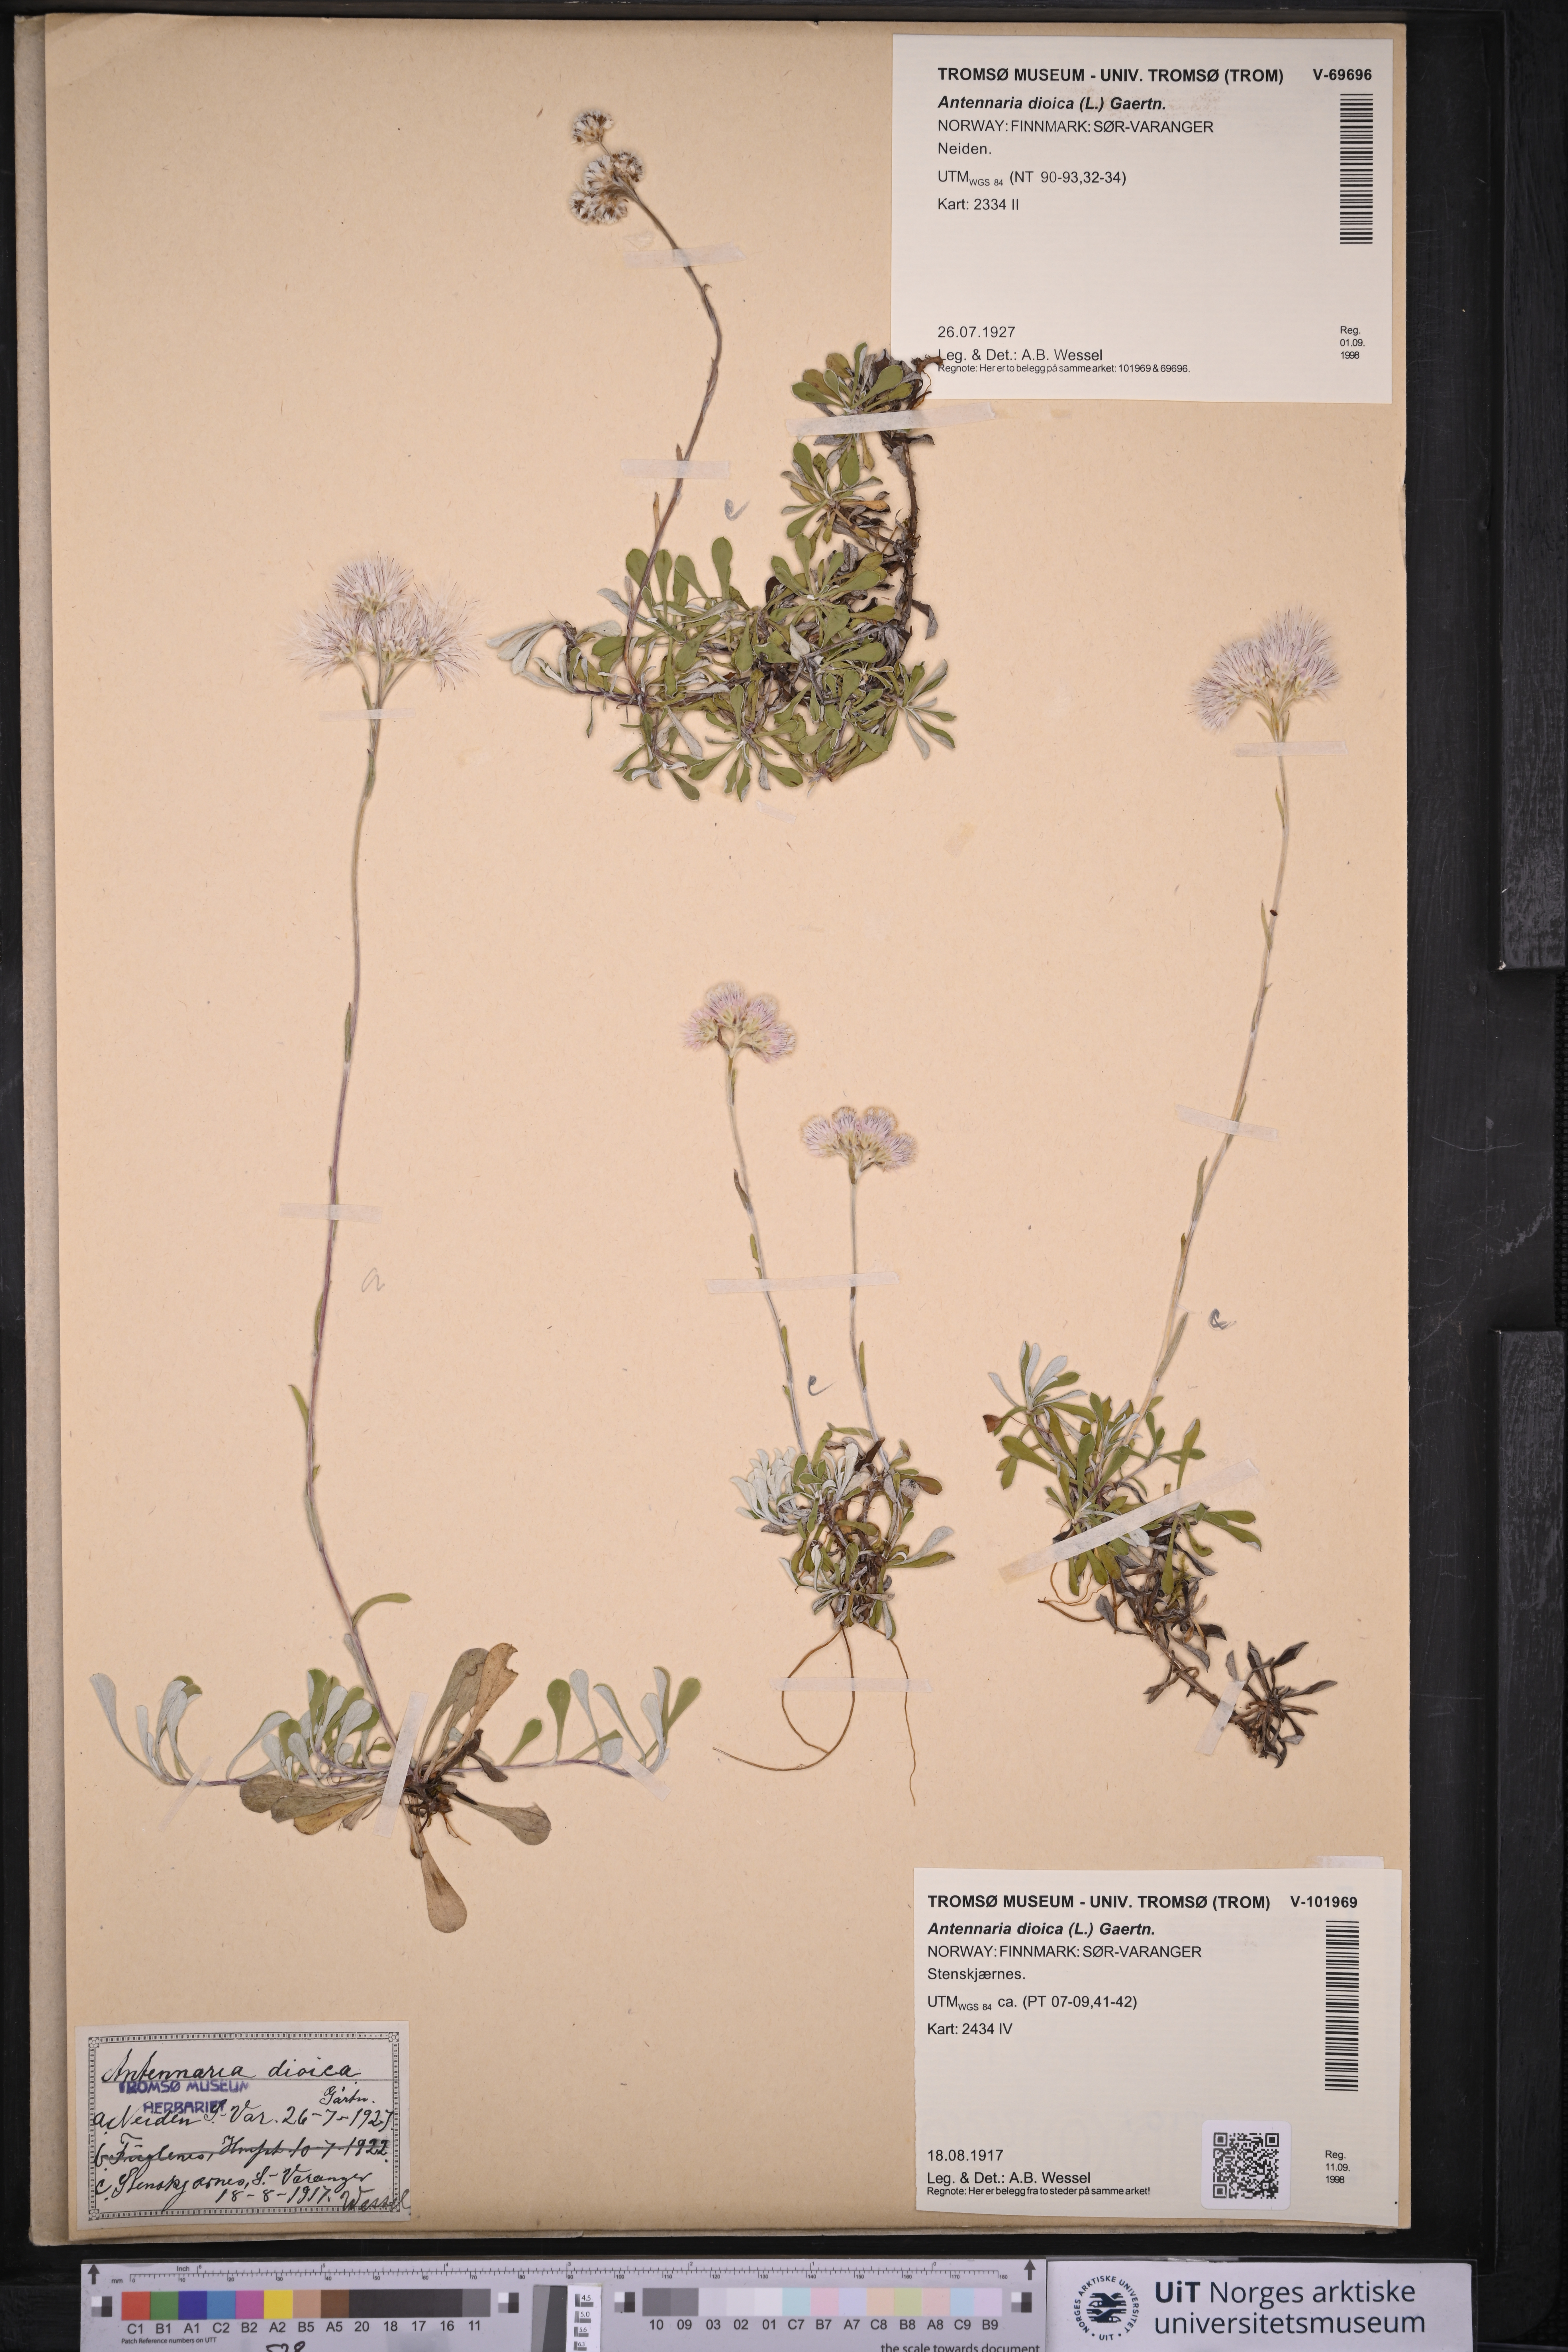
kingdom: Plantae
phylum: Tracheophyta
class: Magnoliopsida
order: Asterales
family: Asteraceae
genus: Antennaria
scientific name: Antennaria dioica
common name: Mountain everlasting
